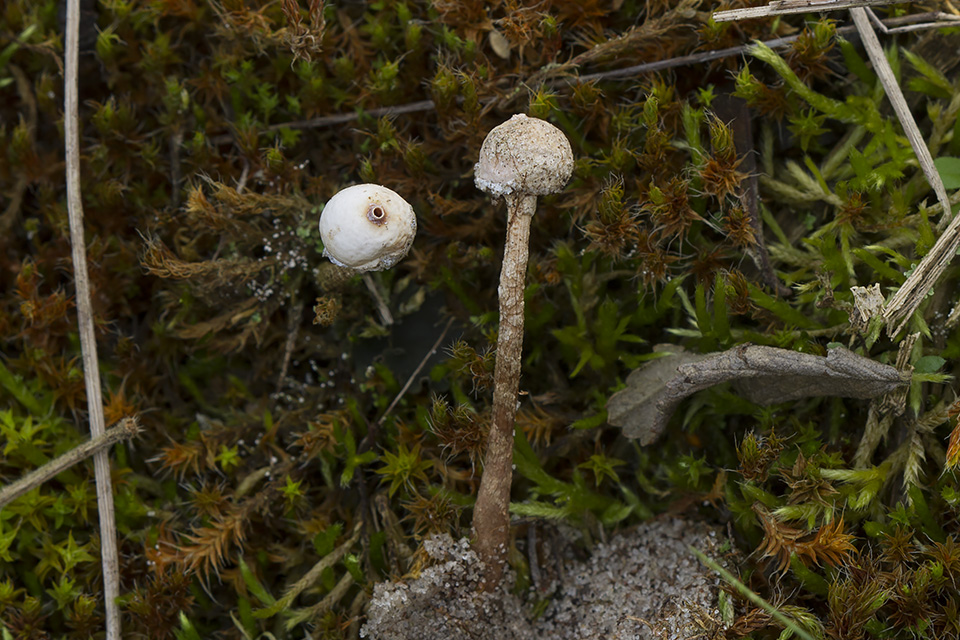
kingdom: Fungi
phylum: Basidiomycota
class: Agaricomycetes
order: Agaricales
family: Agaricaceae
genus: Tulostoma
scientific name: Tulostoma brumale
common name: vinter-stilkbovist
